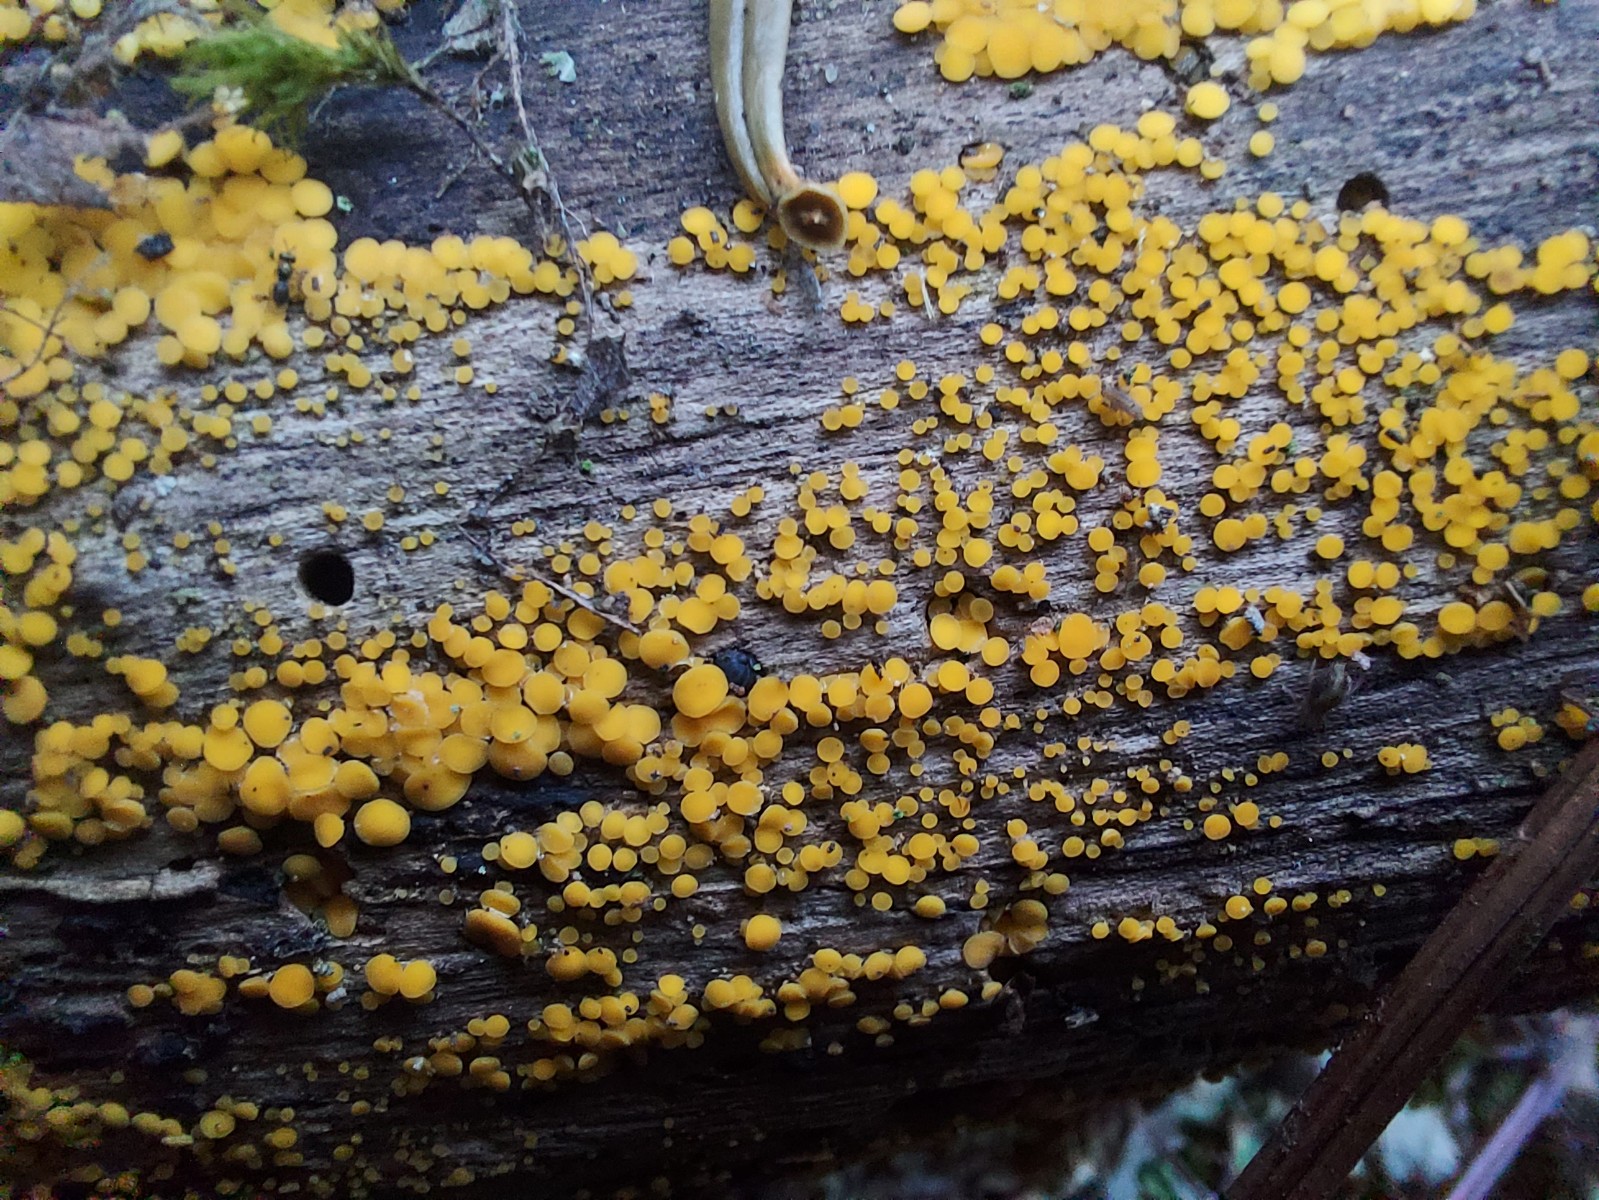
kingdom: Fungi
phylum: Ascomycota
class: Leotiomycetes
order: Helotiales
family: Pezizellaceae
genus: Calycina
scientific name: Calycina citrina
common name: almindelig gulskive
